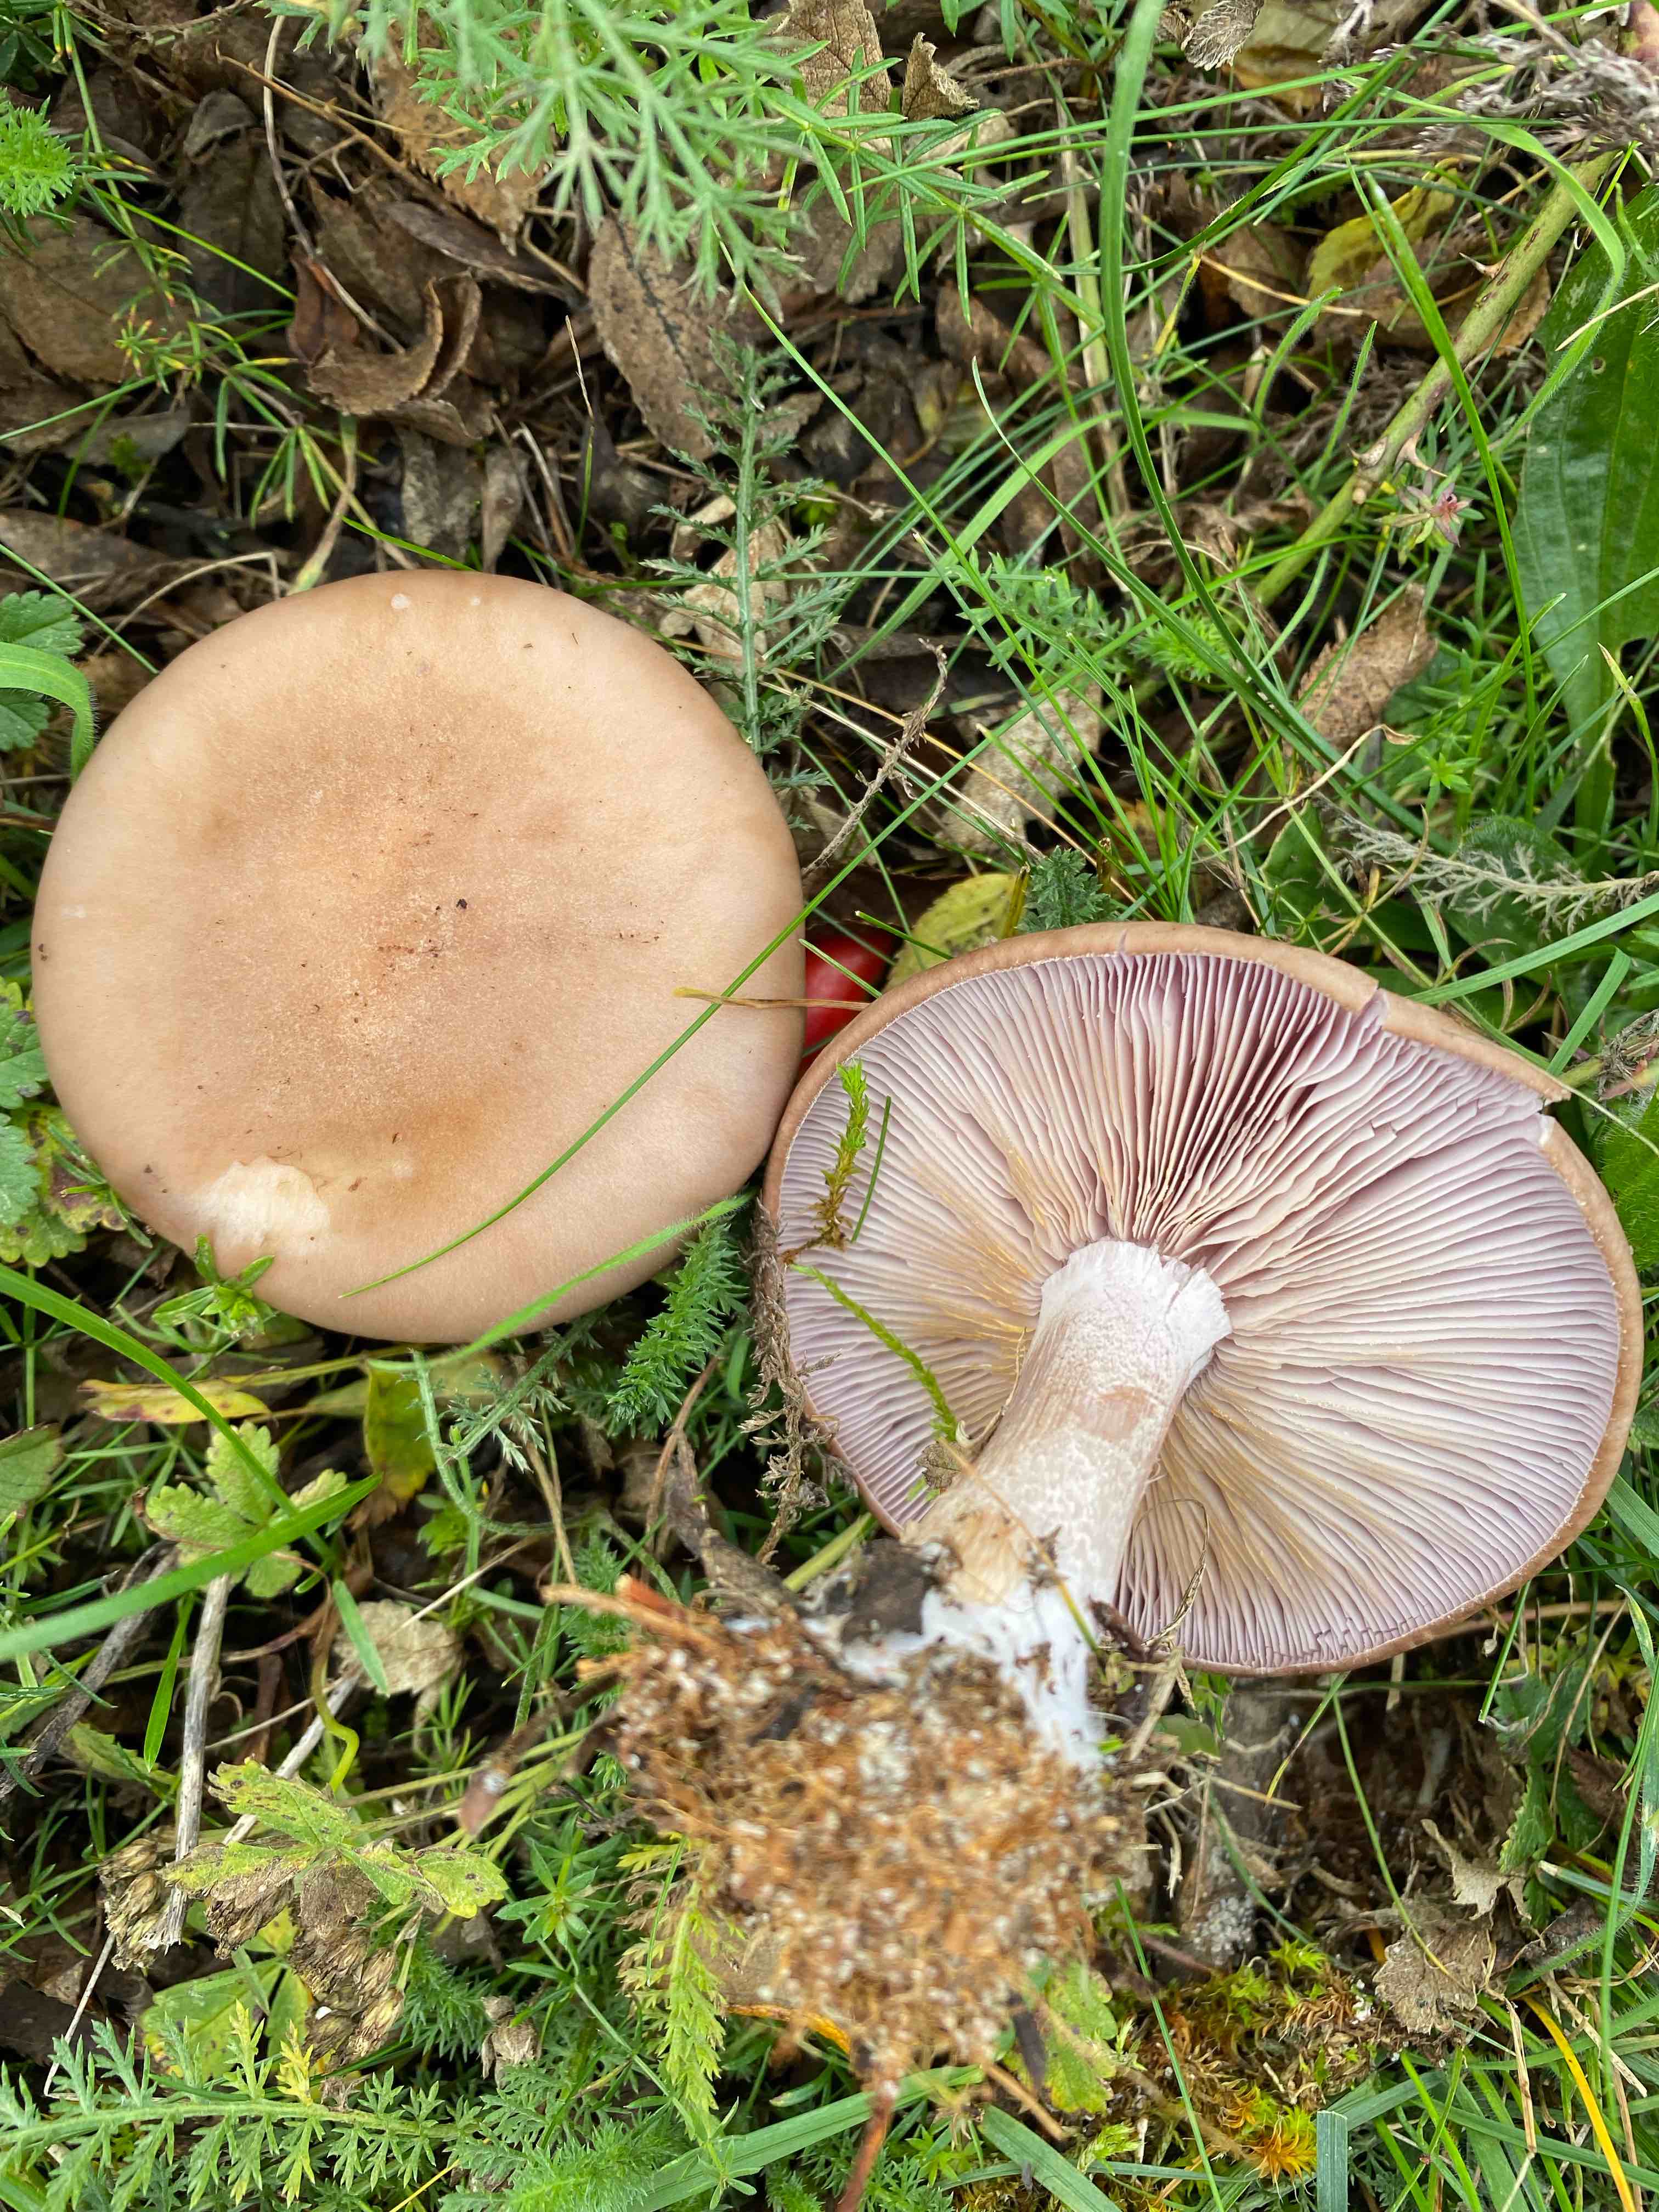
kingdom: Fungi
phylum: Basidiomycota
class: Agaricomycetes
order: Agaricales
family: Tricholomataceae
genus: Lepista
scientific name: Lepista nuda
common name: violet hekseringshat
